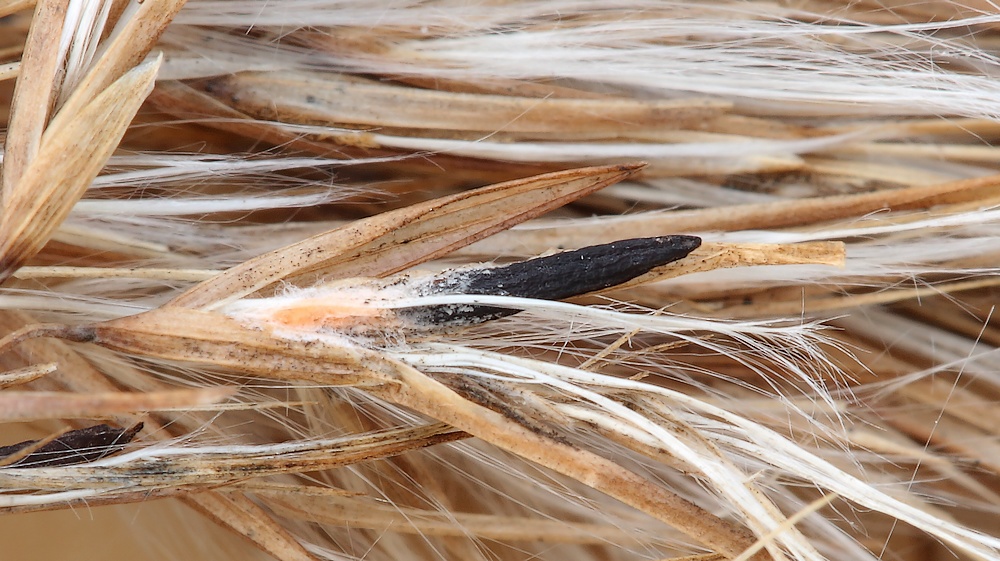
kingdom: Fungi
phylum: Ascomycota
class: Sordariomycetes
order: Hypocreales
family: Clavicipitaceae
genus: Claviceps
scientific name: Claviceps arundinis
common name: tagrør-meldrøjer
